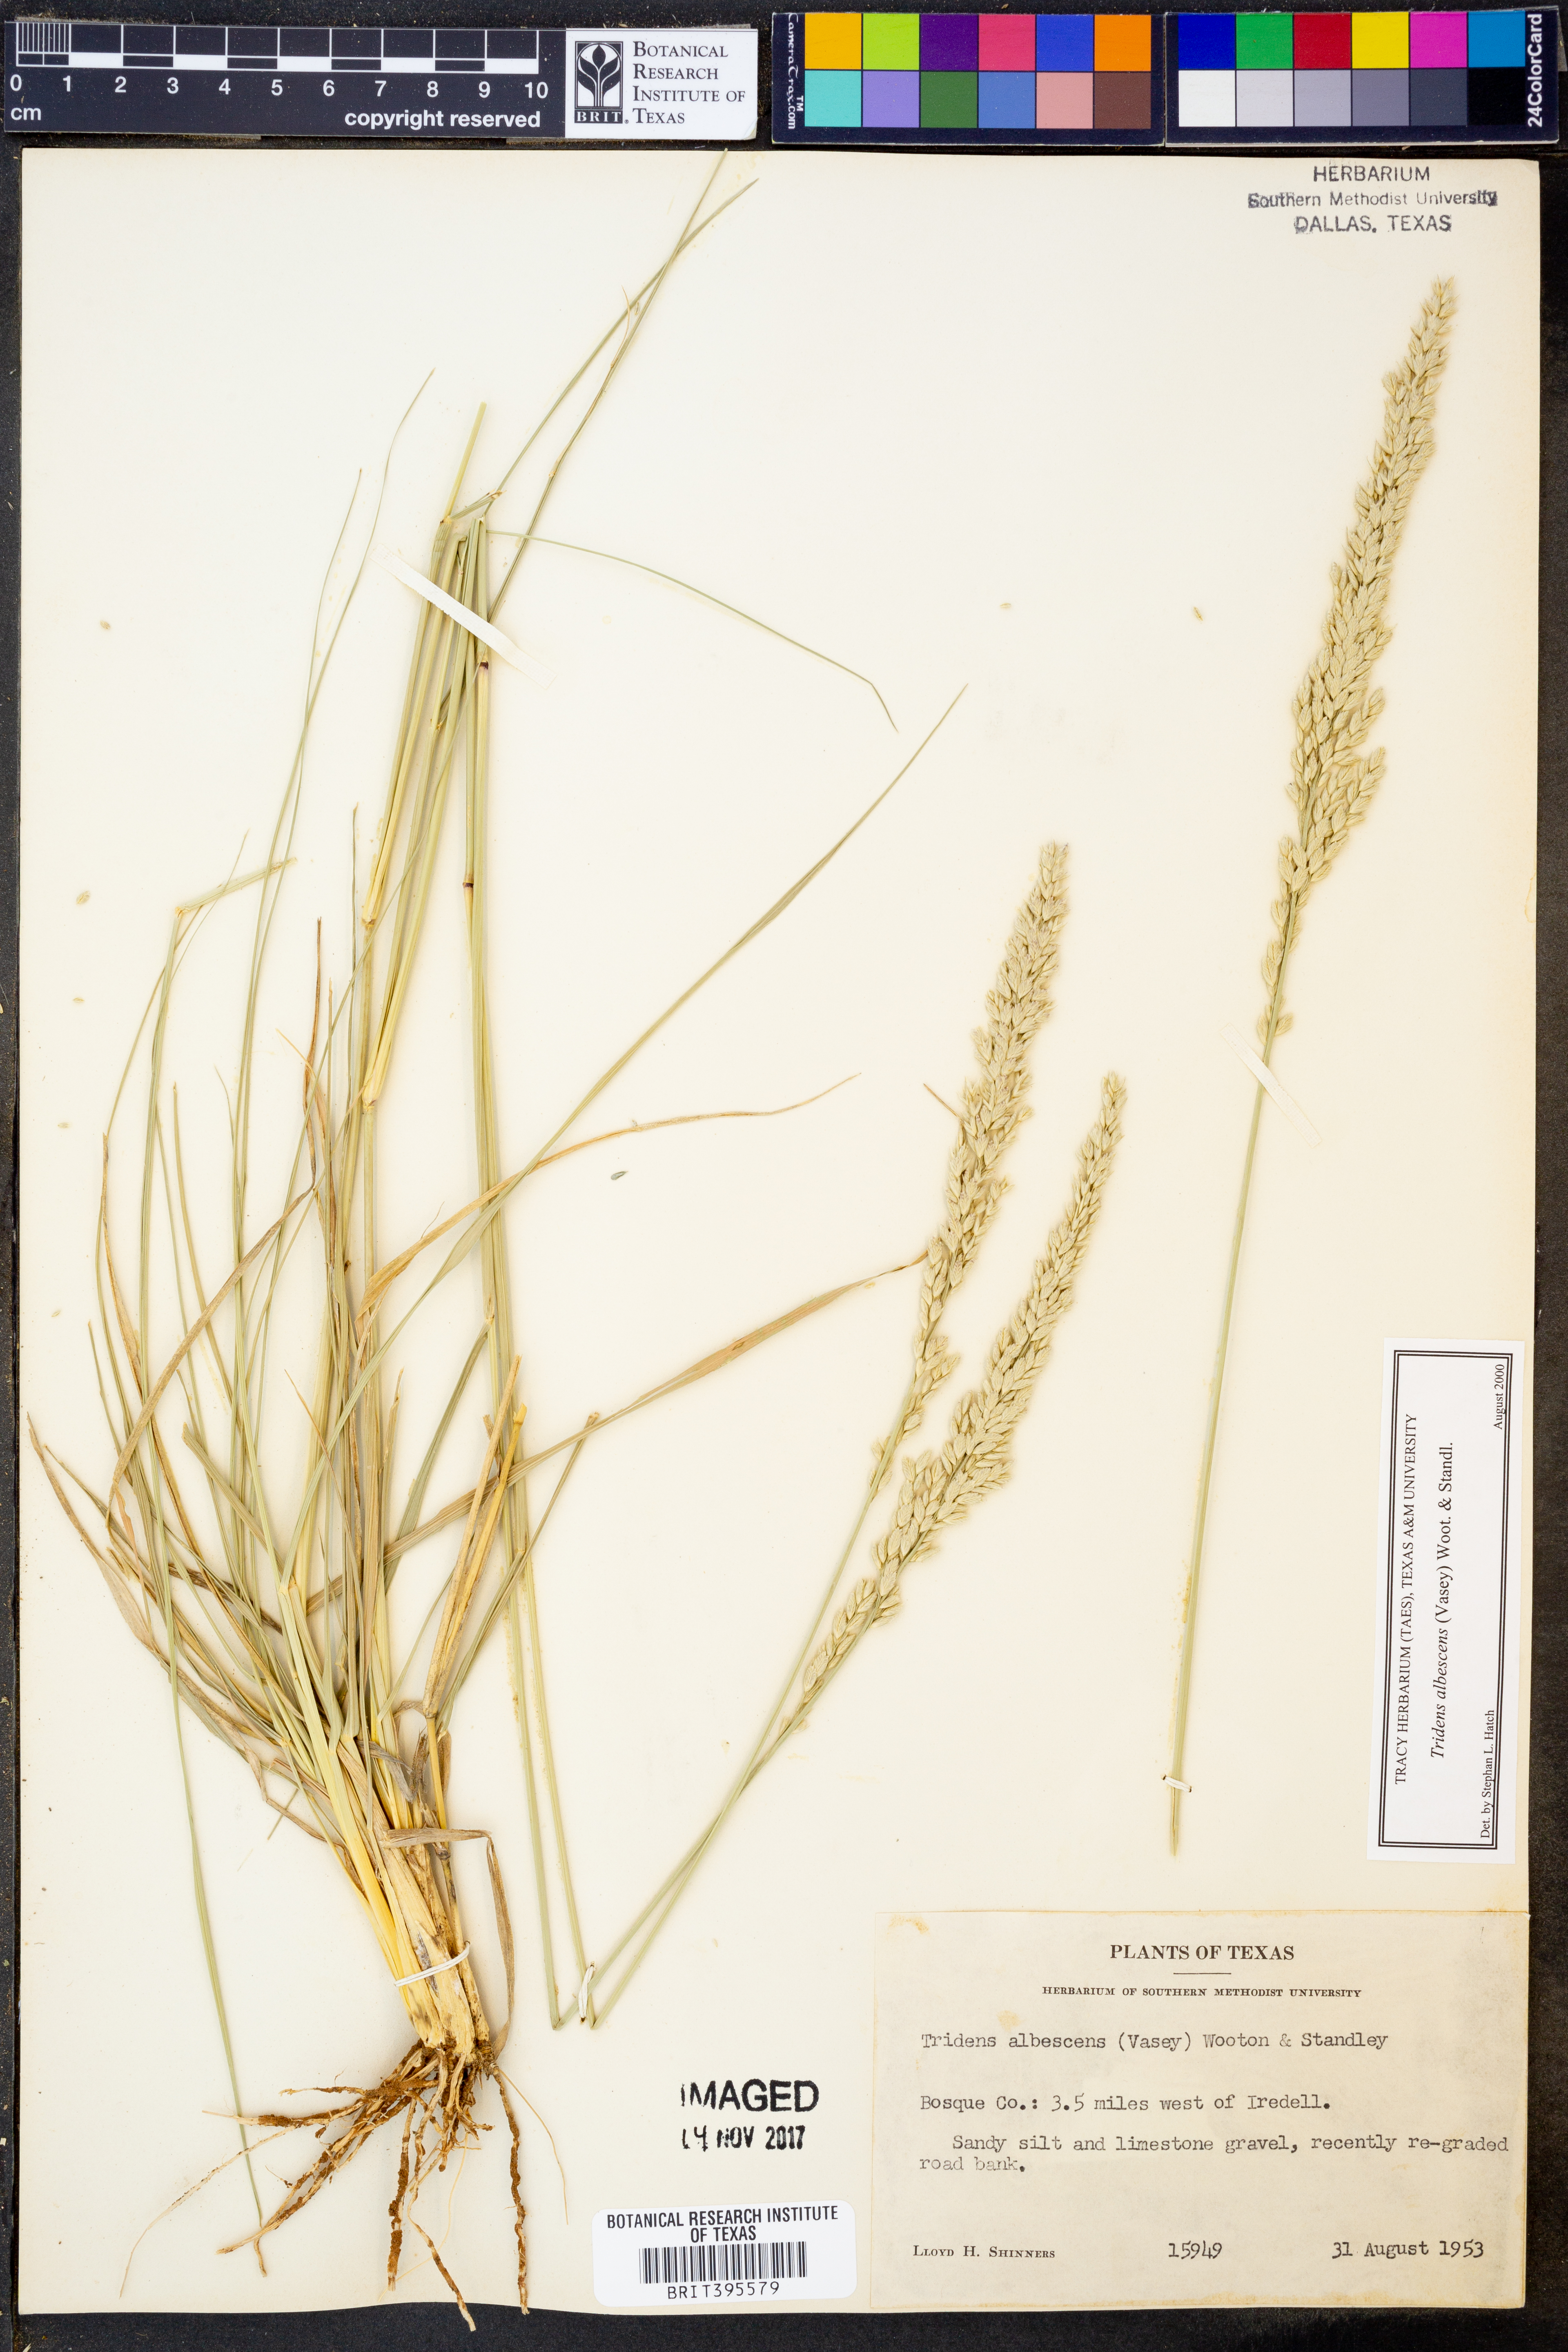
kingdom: Plantae
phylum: Tracheophyta
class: Liliopsida
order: Poales
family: Poaceae
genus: Tridens
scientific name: Tridens albescens
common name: White tridens
